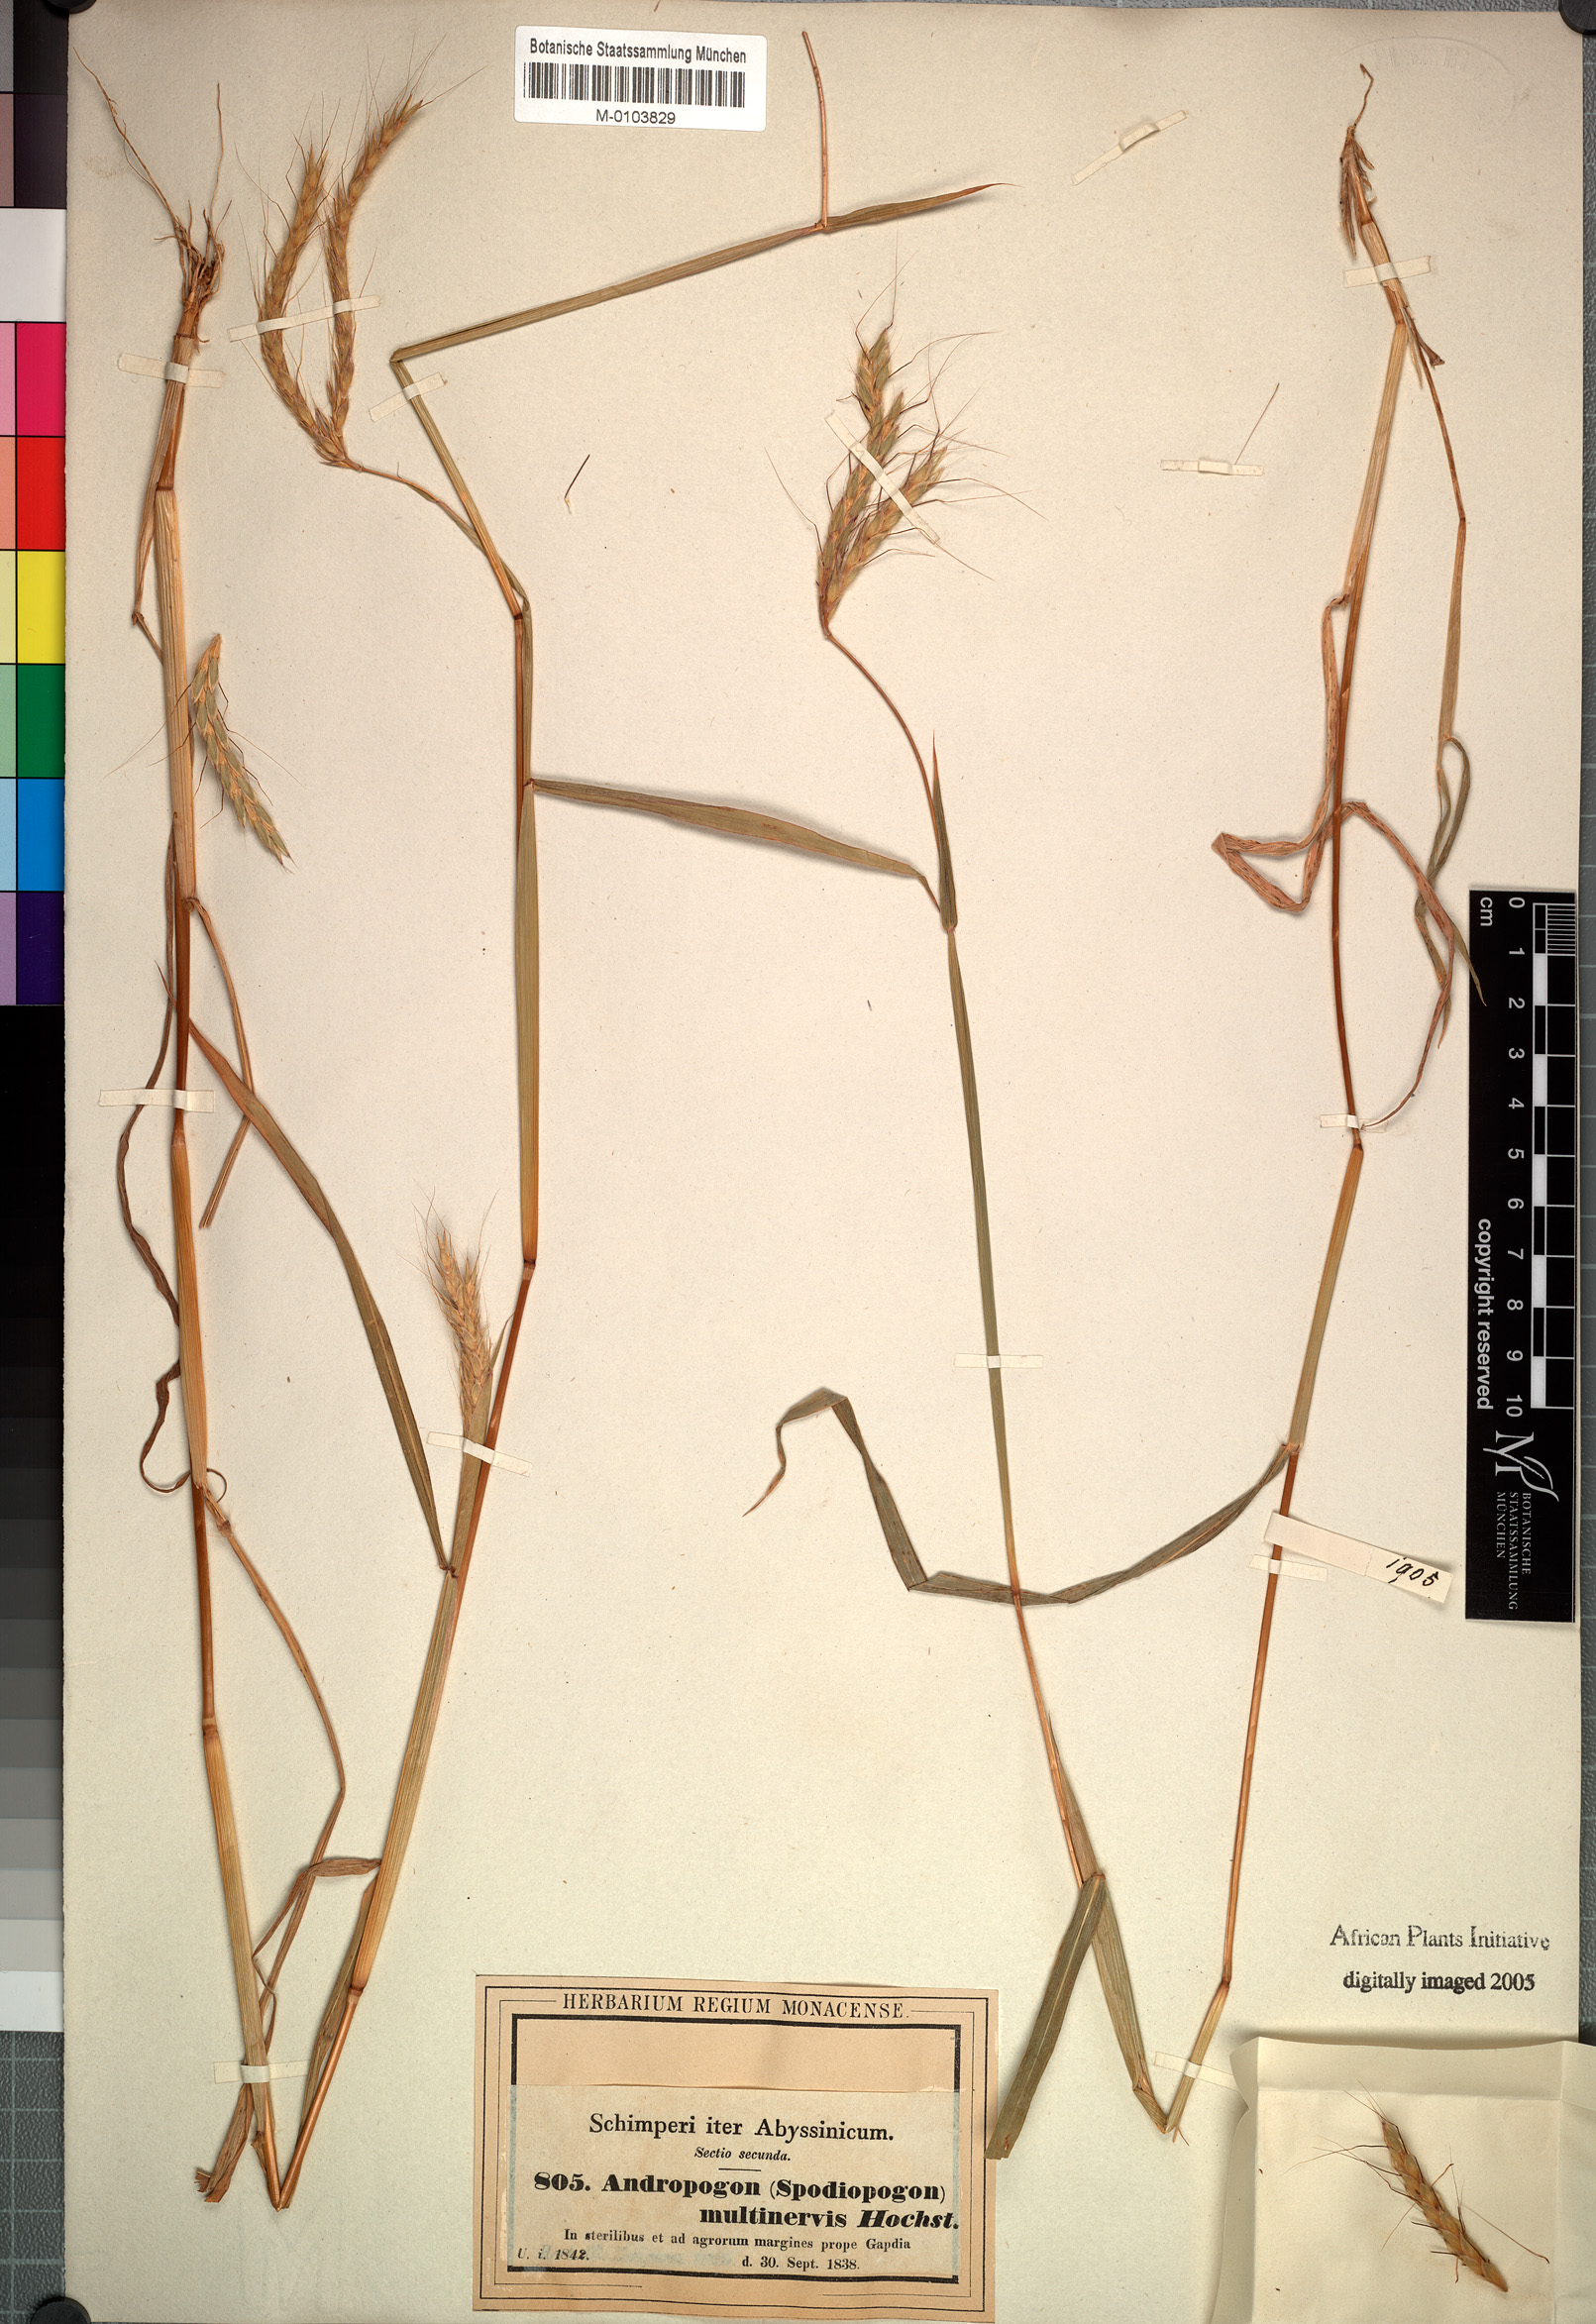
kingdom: Plantae
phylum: Tracheophyta
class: Liliopsida
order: Poales
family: Poaceae
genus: Andropogon
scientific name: Andropogon abyssinicus
